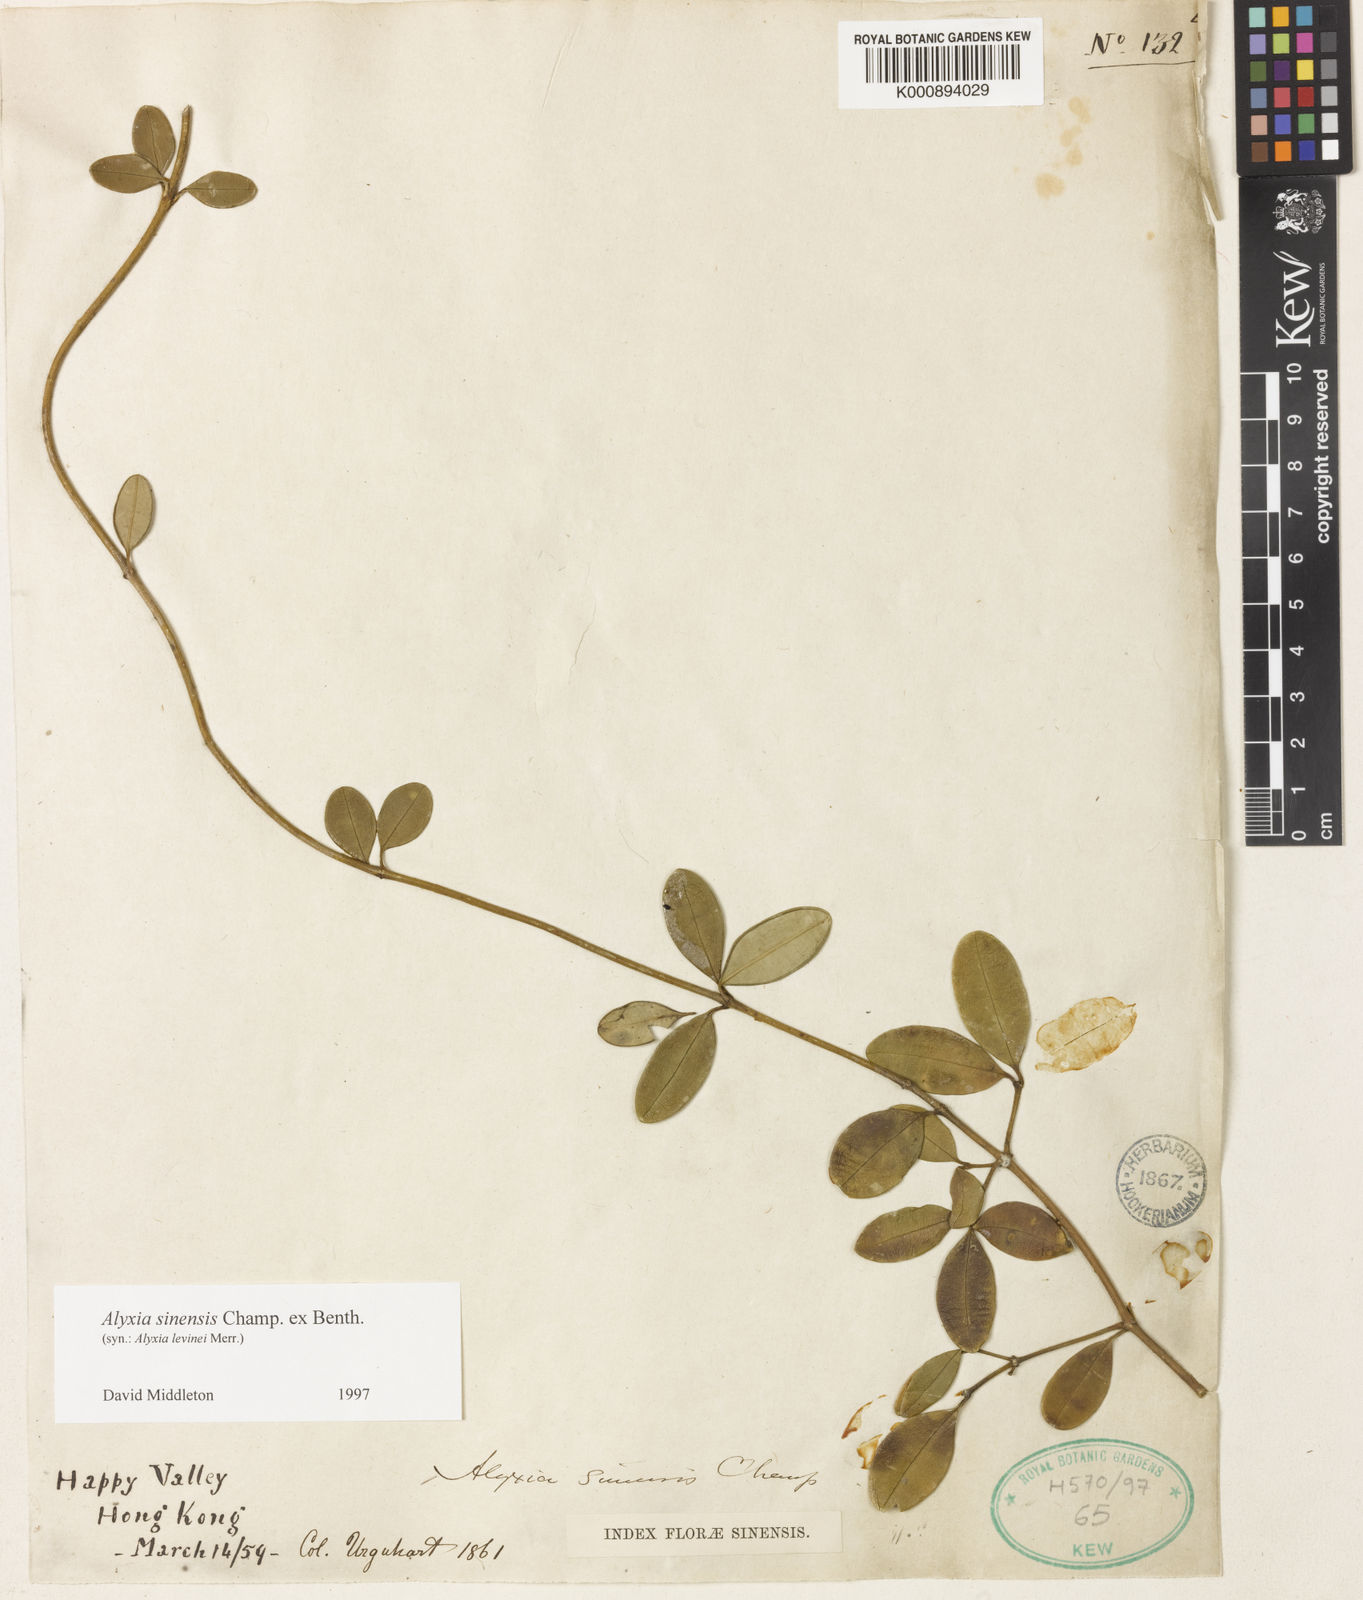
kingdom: Plantae
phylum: Tracheophyta
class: Magnoliopsida
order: Gentianales
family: Apocynaceae
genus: Alyxia
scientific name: Alyxia sinensis
